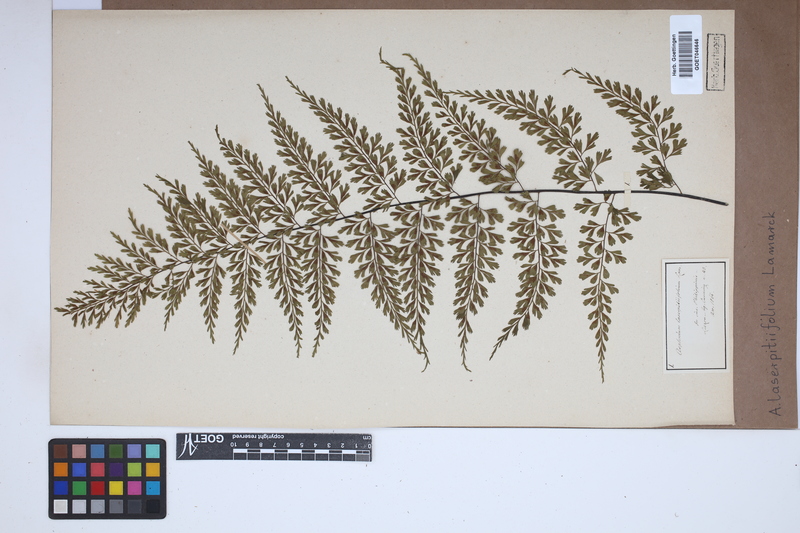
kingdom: Plantae
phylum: Tracheophyta
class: Polypodiopsida
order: Polypodiales
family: Aspleniaceae
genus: Asplenium
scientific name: Asplenium laserpitiifolium
